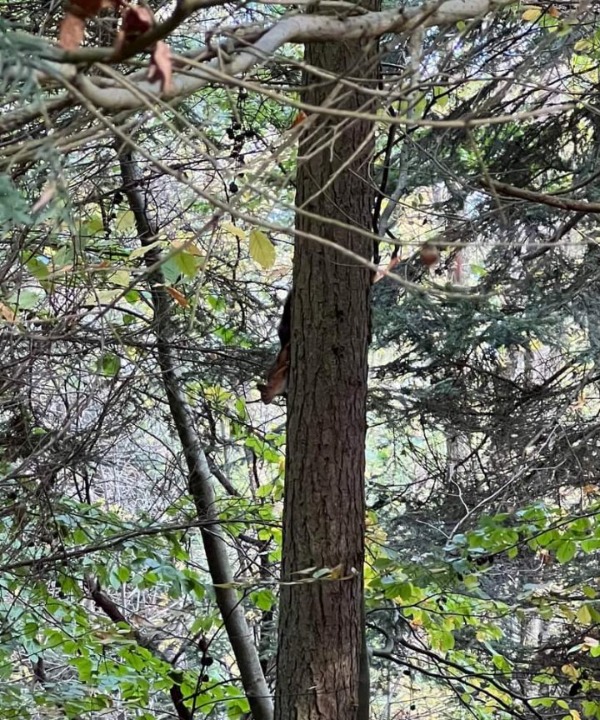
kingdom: Animalia
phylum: Chordata
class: Mammalia
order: Rodentia
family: Sciuridae
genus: Sciurus
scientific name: Sciurus vulgaris
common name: Egern
